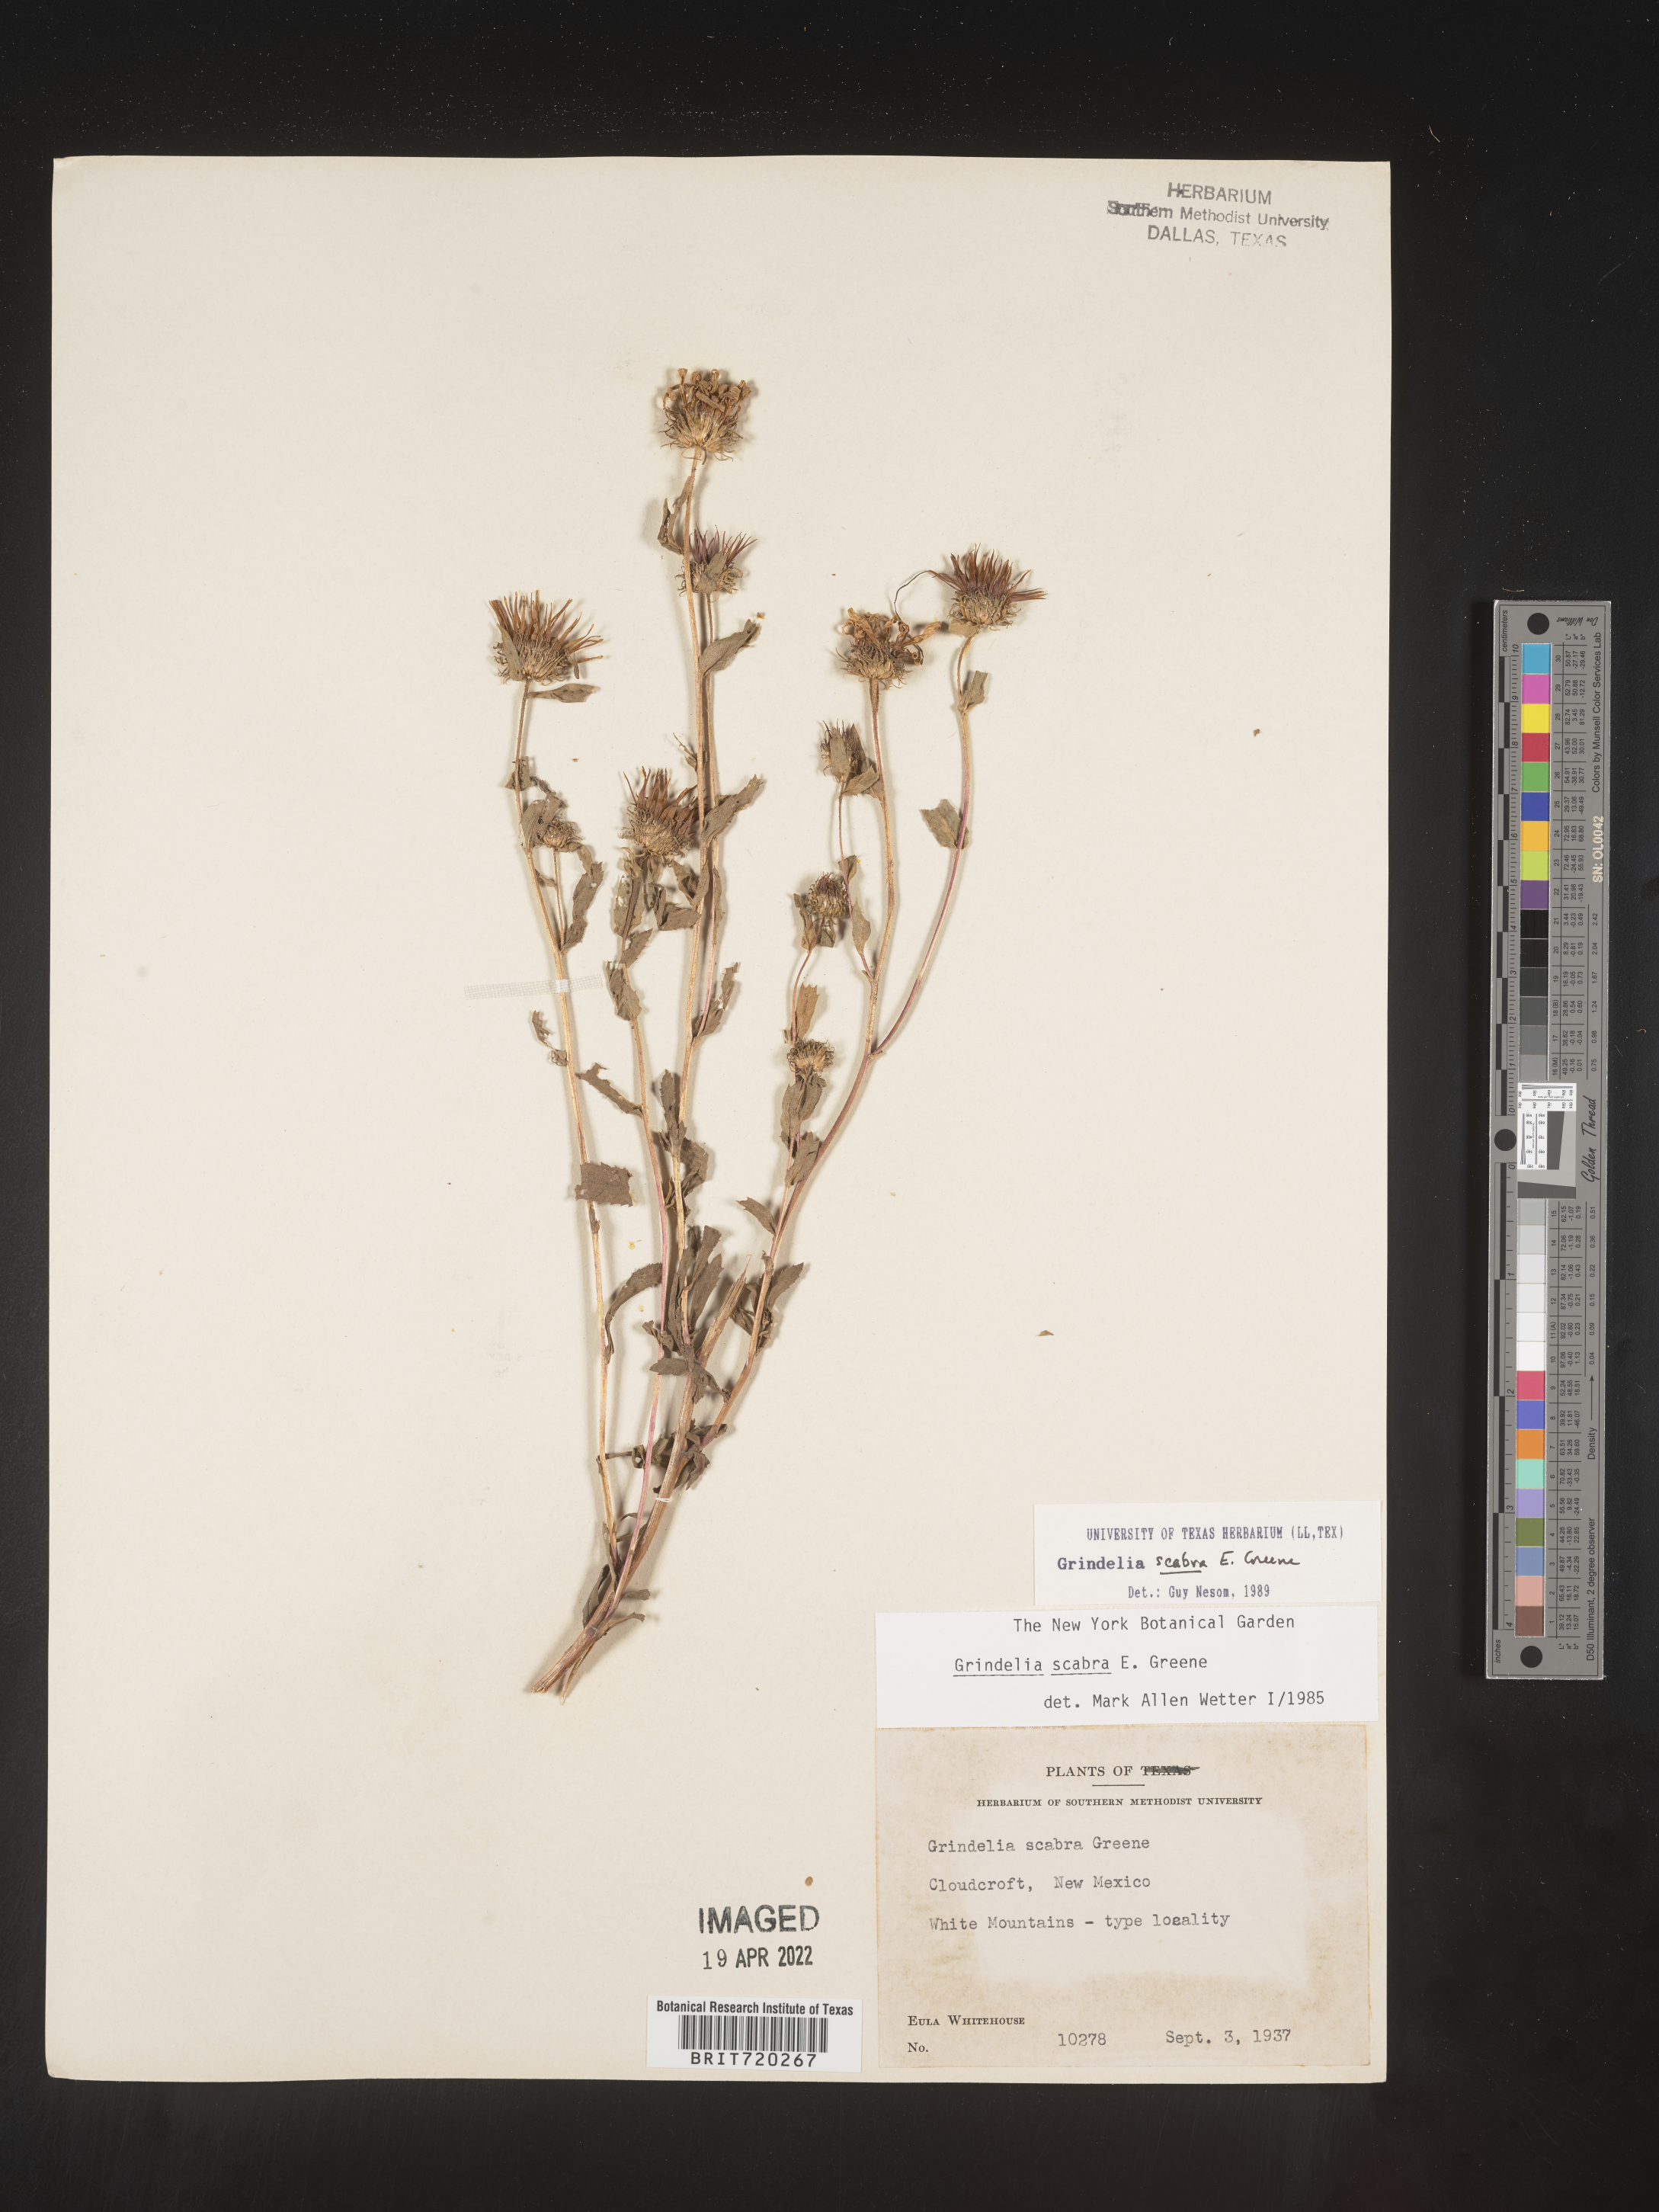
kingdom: Plantae
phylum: Tracheophyta
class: Magnoliopsida
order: Asterales
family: Asteraceae
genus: Grindelia
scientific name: Grindelia scabra
